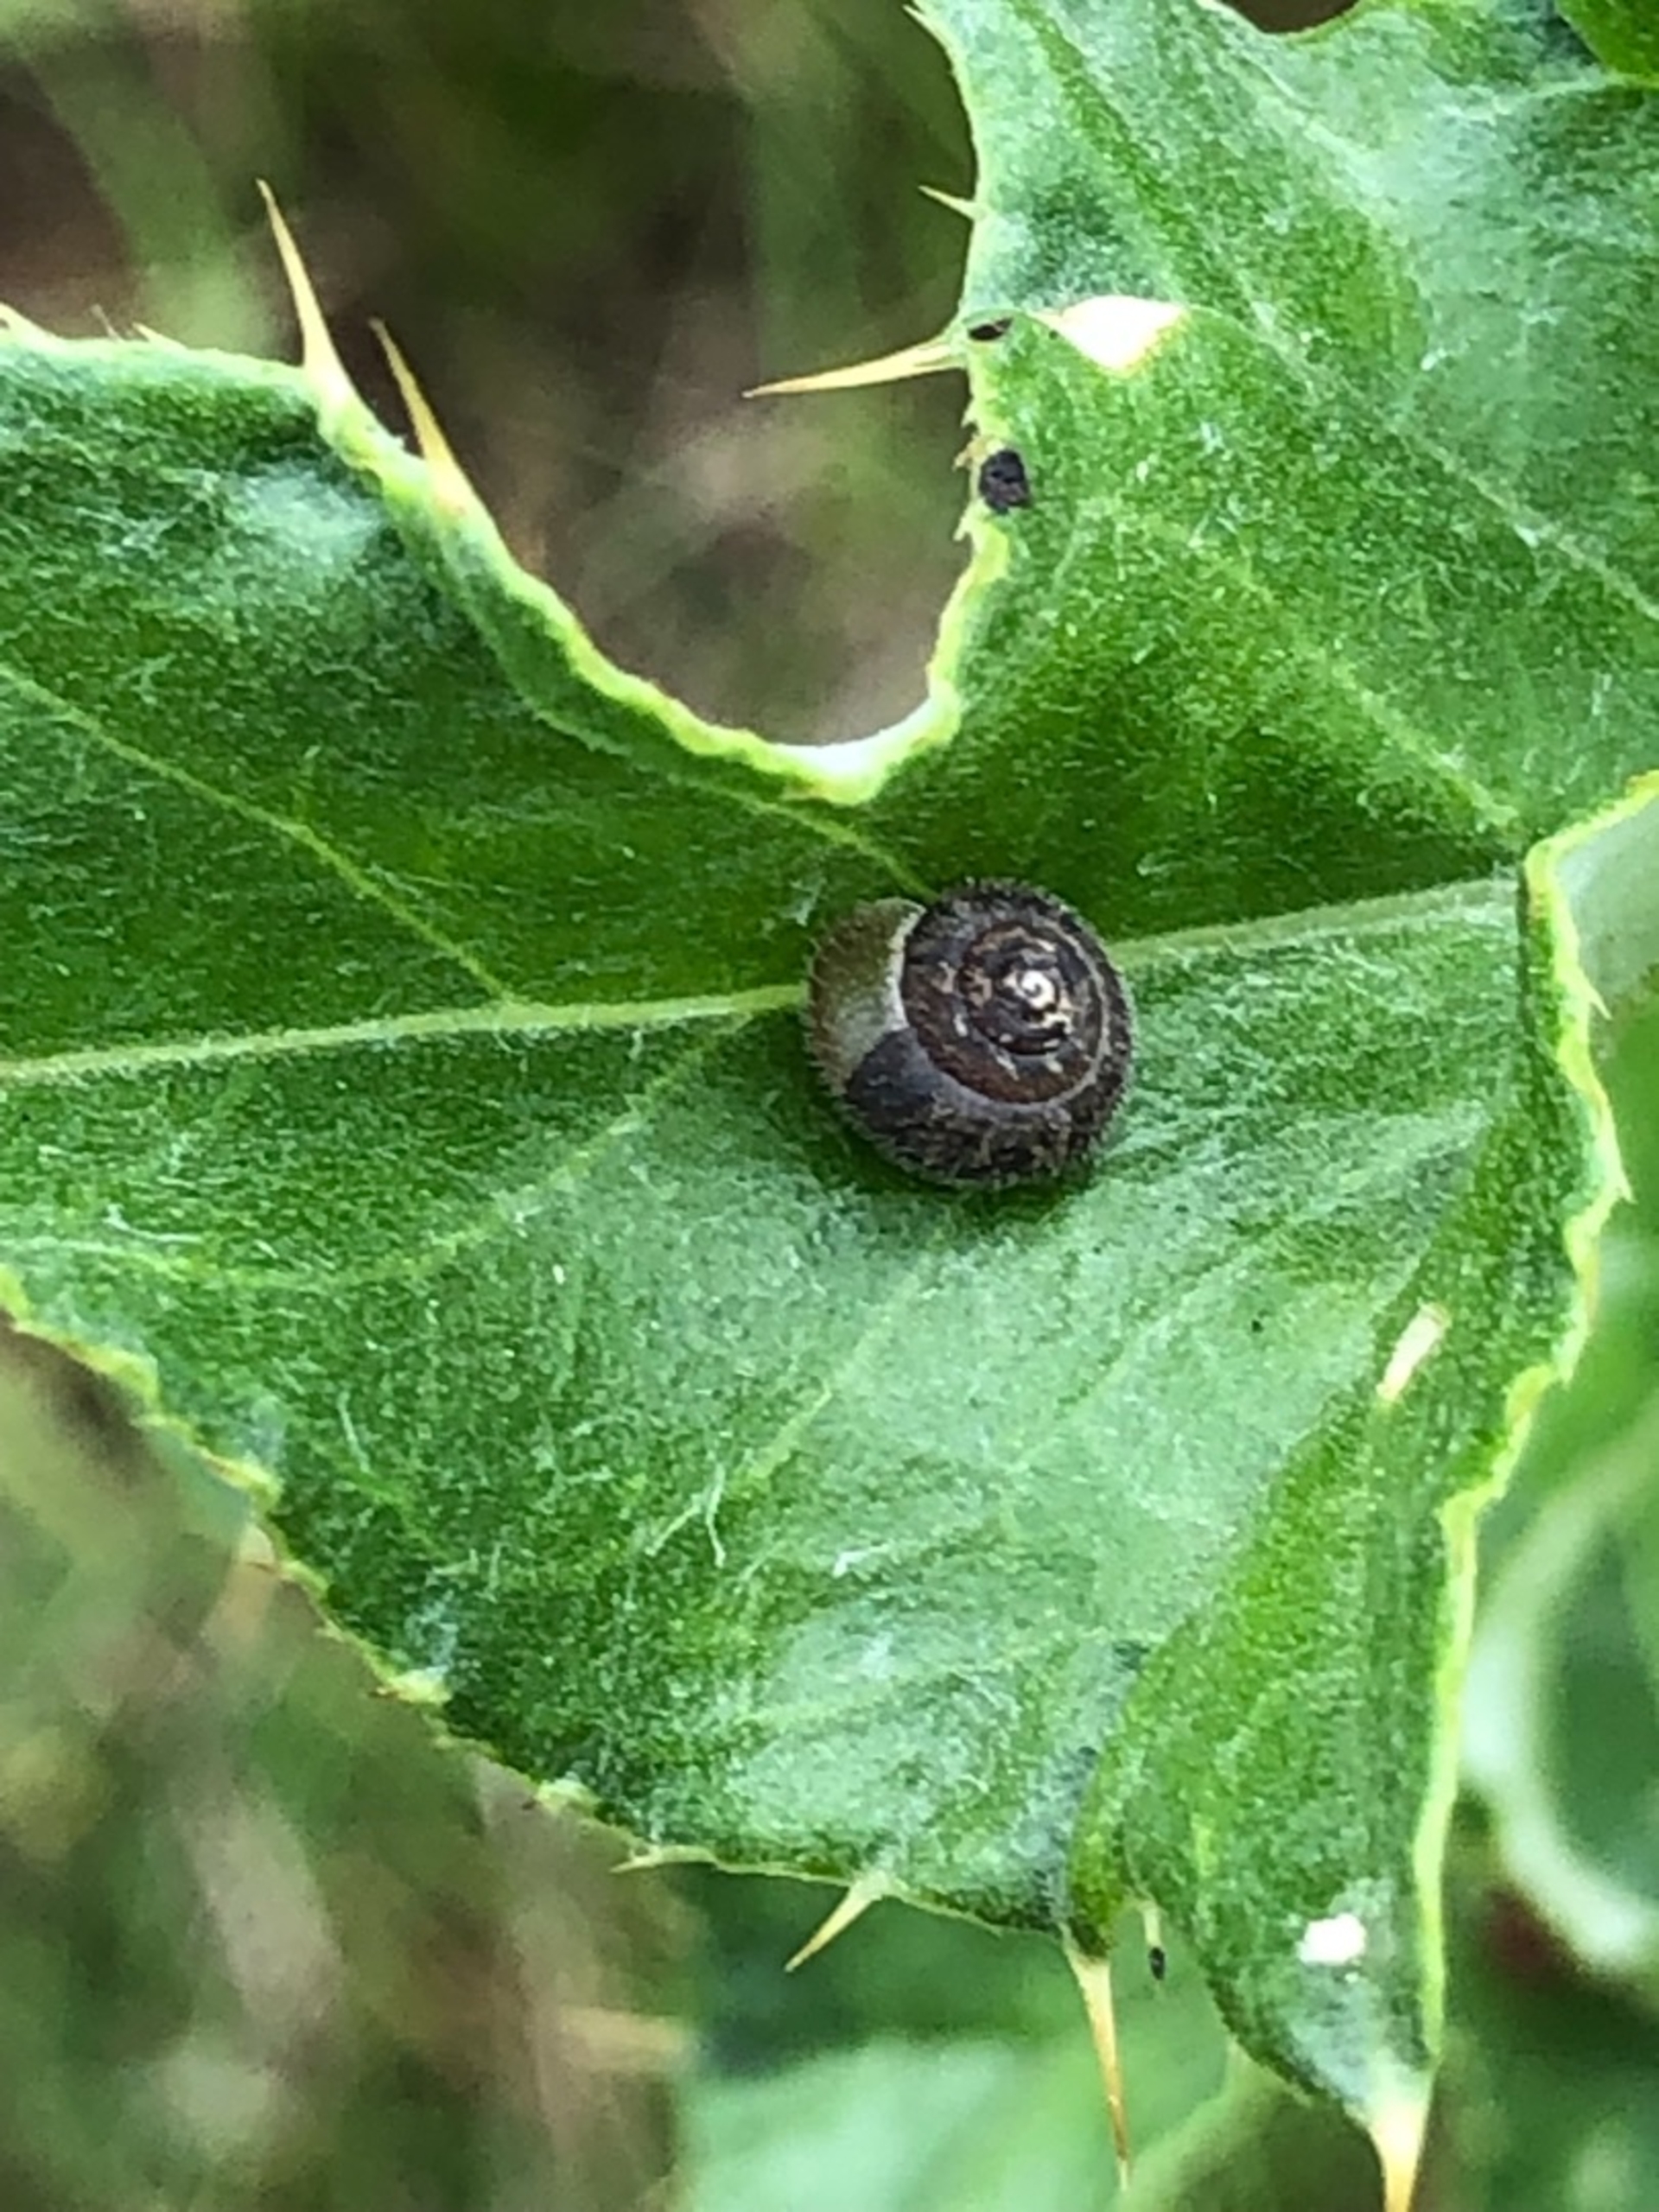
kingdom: Animalia
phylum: Mollusca
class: Gastropoda
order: Stylommatophora
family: Hygromiidae
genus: Trochulus
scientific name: Trochulus hispidus
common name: Håret snegl
